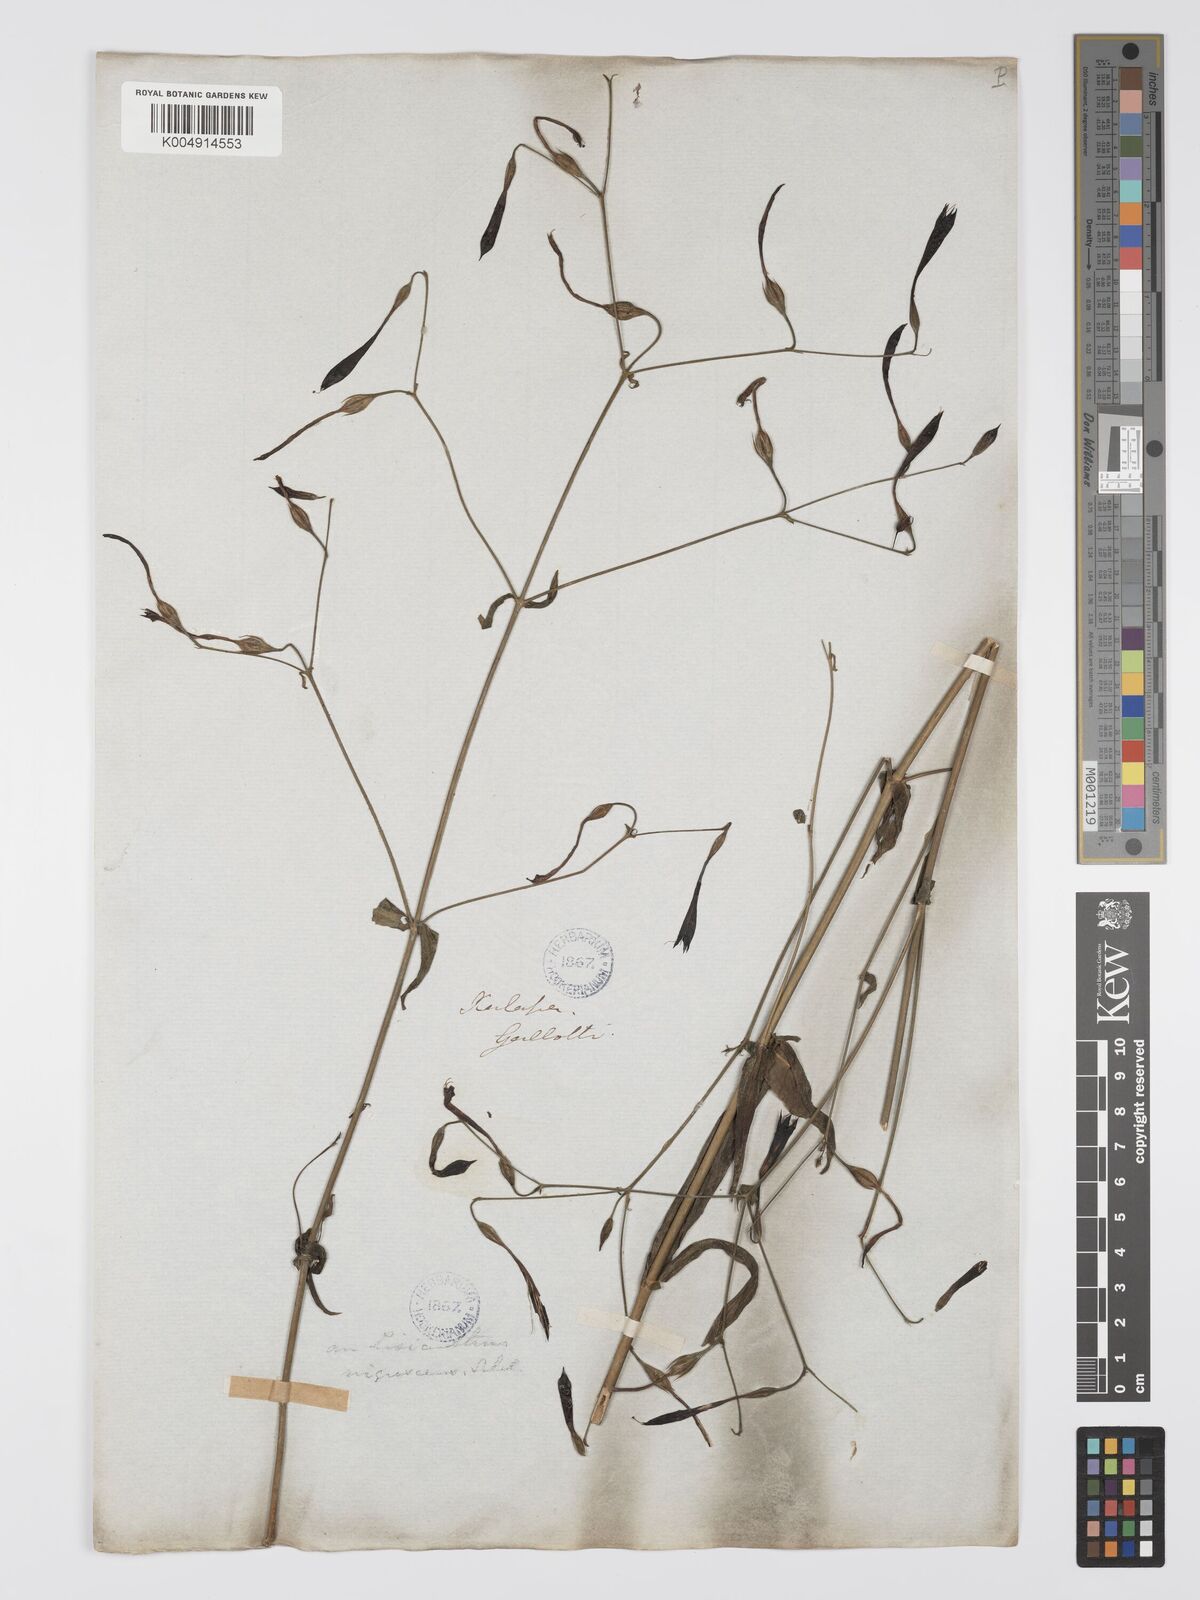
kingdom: Plantae
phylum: Tracheophyta
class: Magnoliopsida
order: Gentianales
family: Gentianaceae
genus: Lisianthus
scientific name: Lisianthus nigrescens
